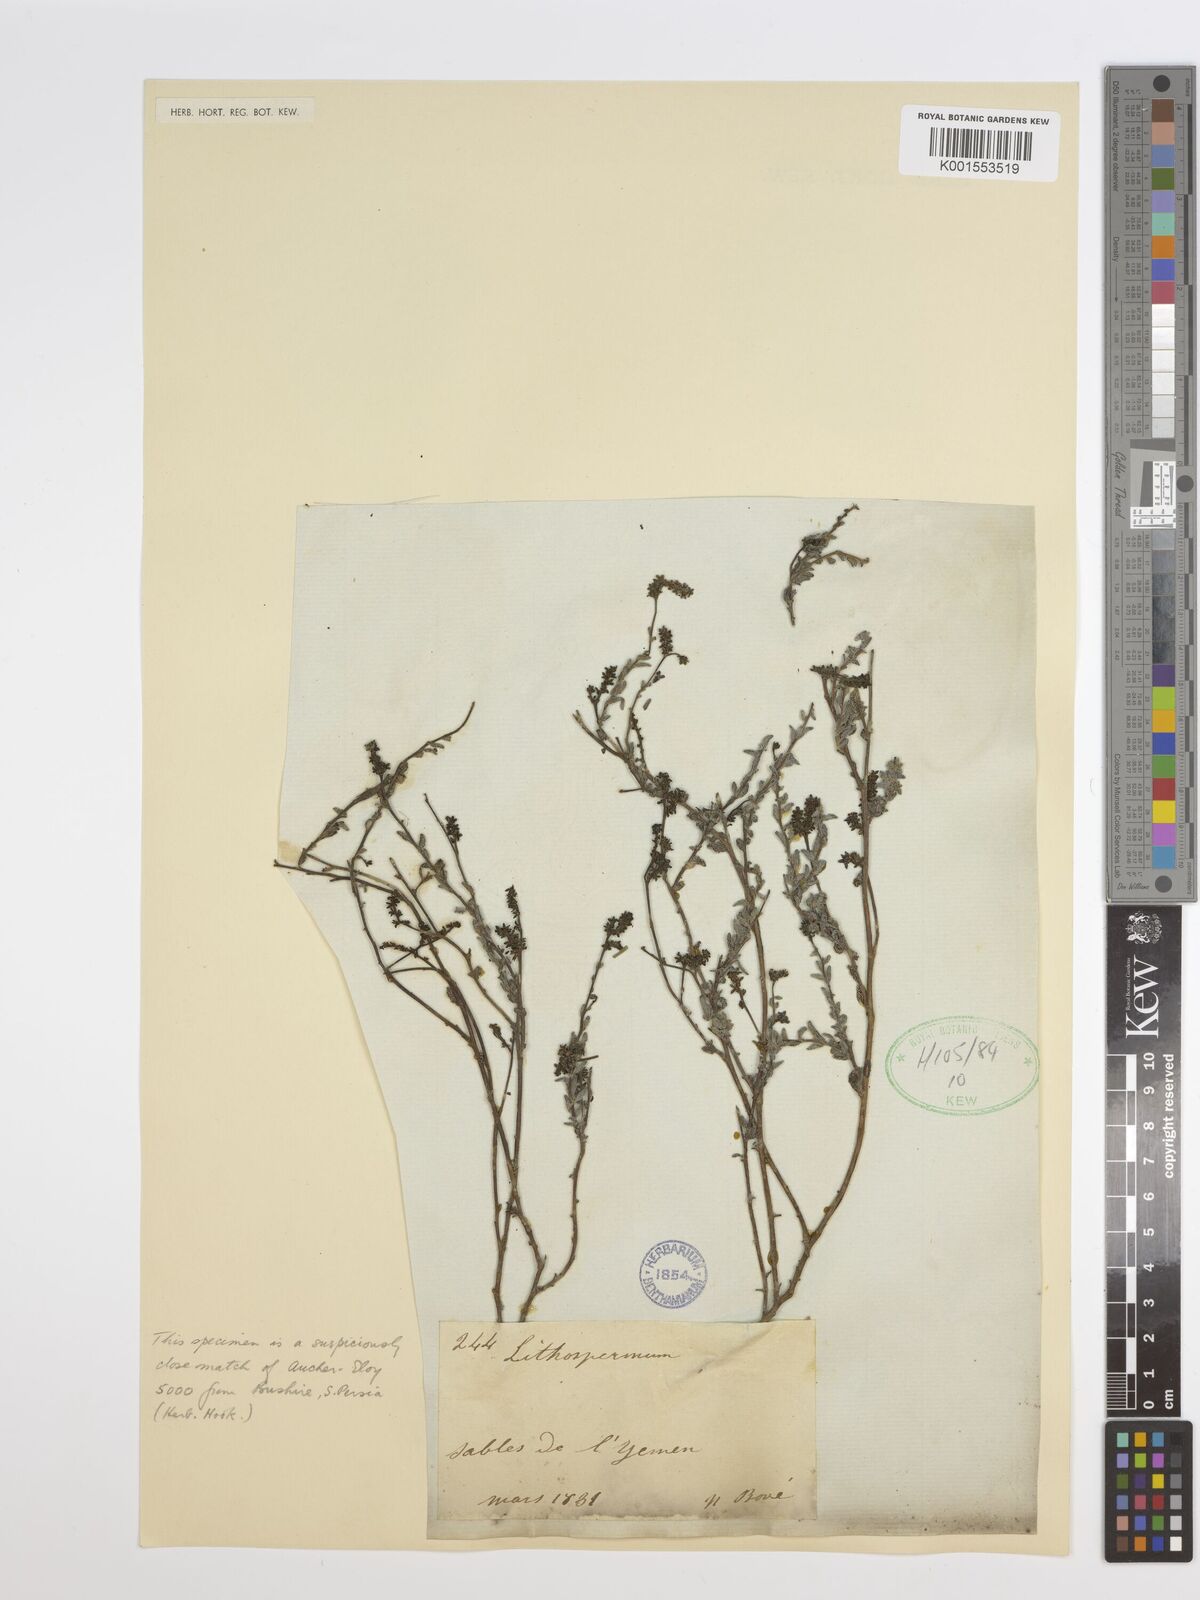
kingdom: Plantae
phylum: Tracheophyta
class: Magnoliopsida
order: Boraginales
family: Boraginaceae
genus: Lithospermum
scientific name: Lithospermum
